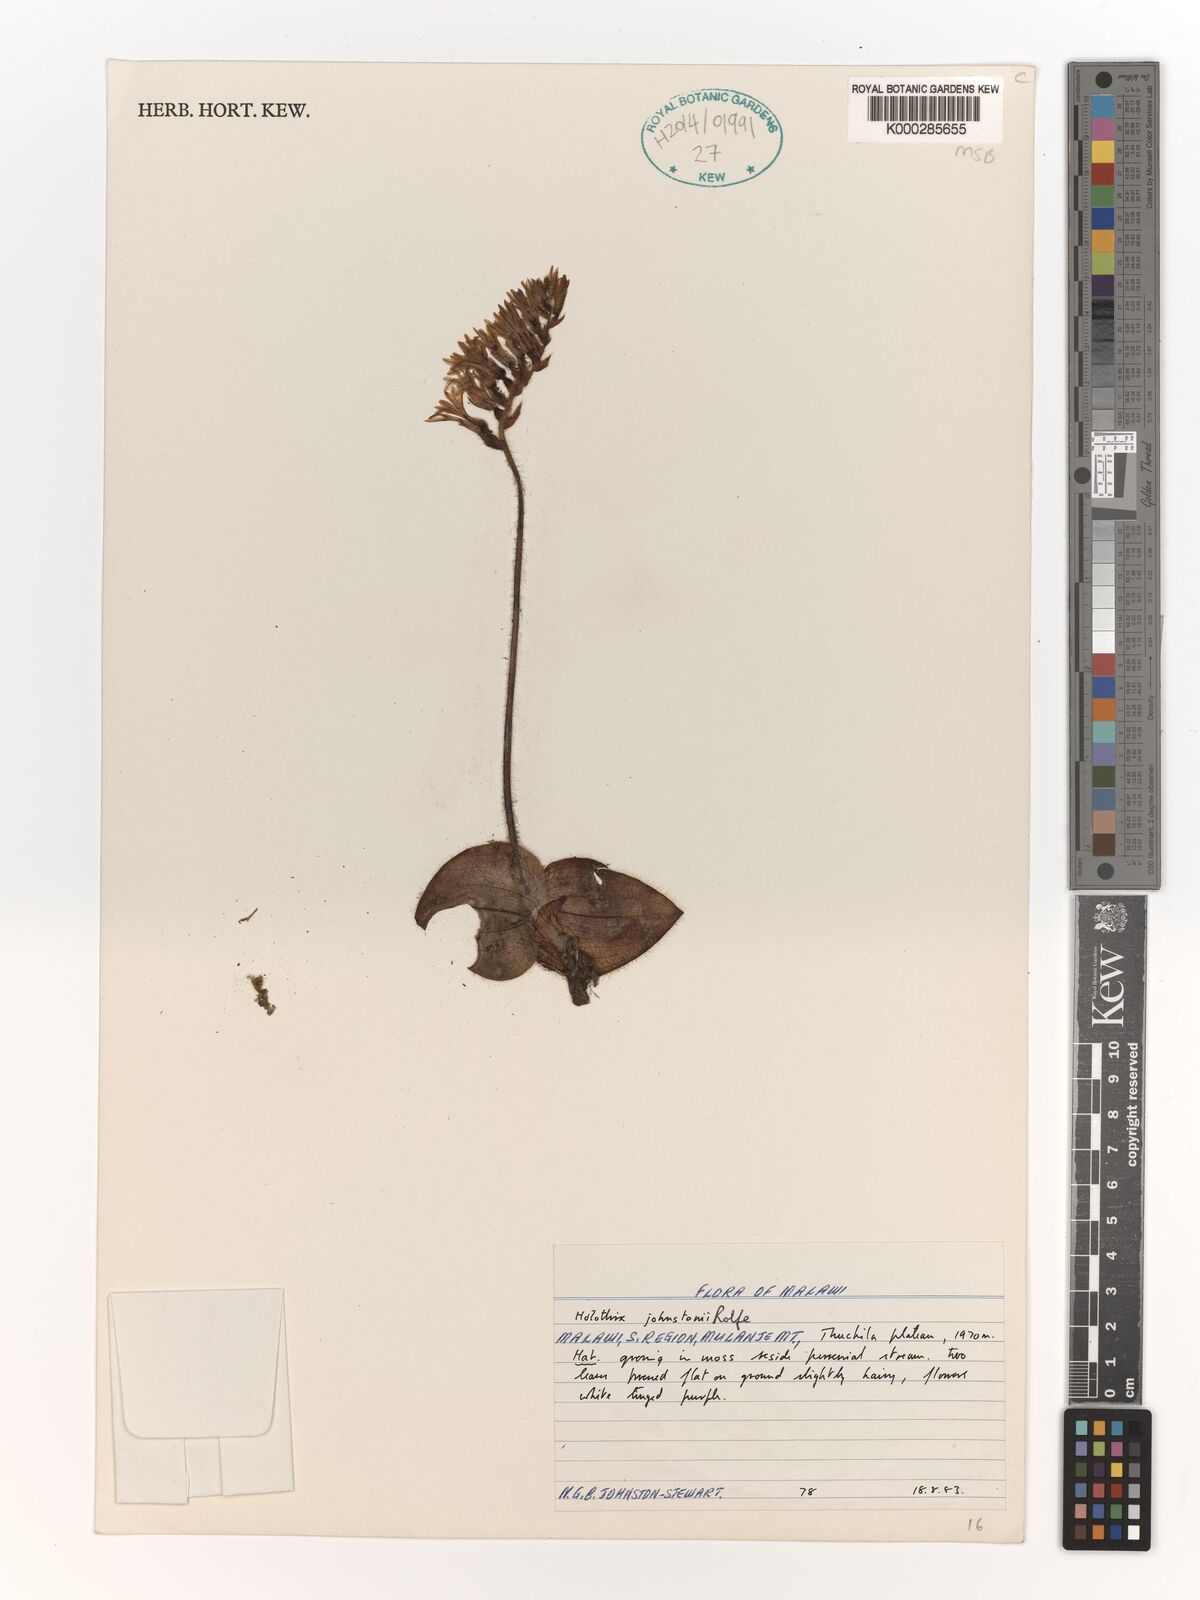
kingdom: Plantae
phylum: Tracheophyta
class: Liliopsida
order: Asparagales
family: Orchidaceae
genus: Holothrix
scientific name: Holothrix johnstonii
